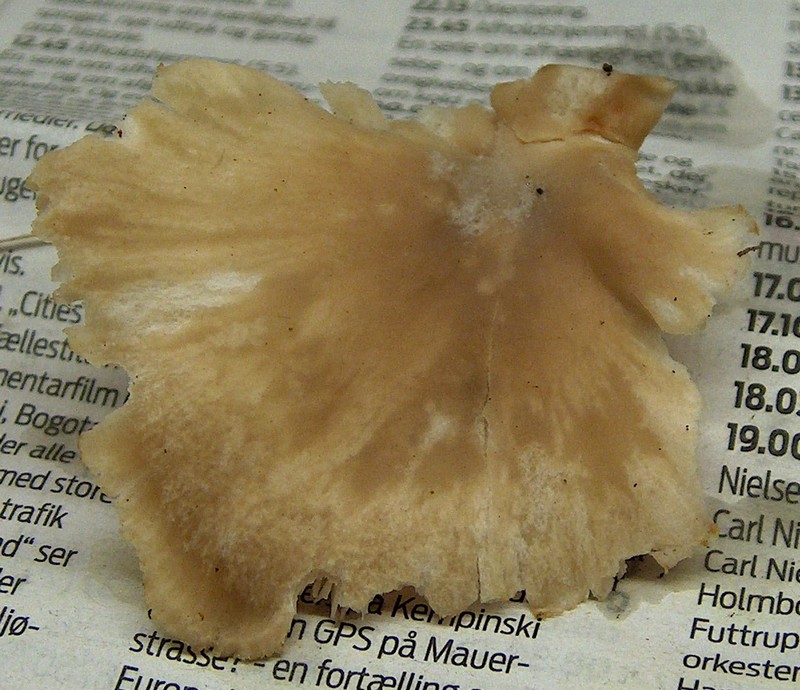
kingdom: Fungi
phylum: Basidiomycota
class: Agaricomycetes
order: Agaricales
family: Pleurotaceae
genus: Pleurotus
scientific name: Pleurotus ostreatus
